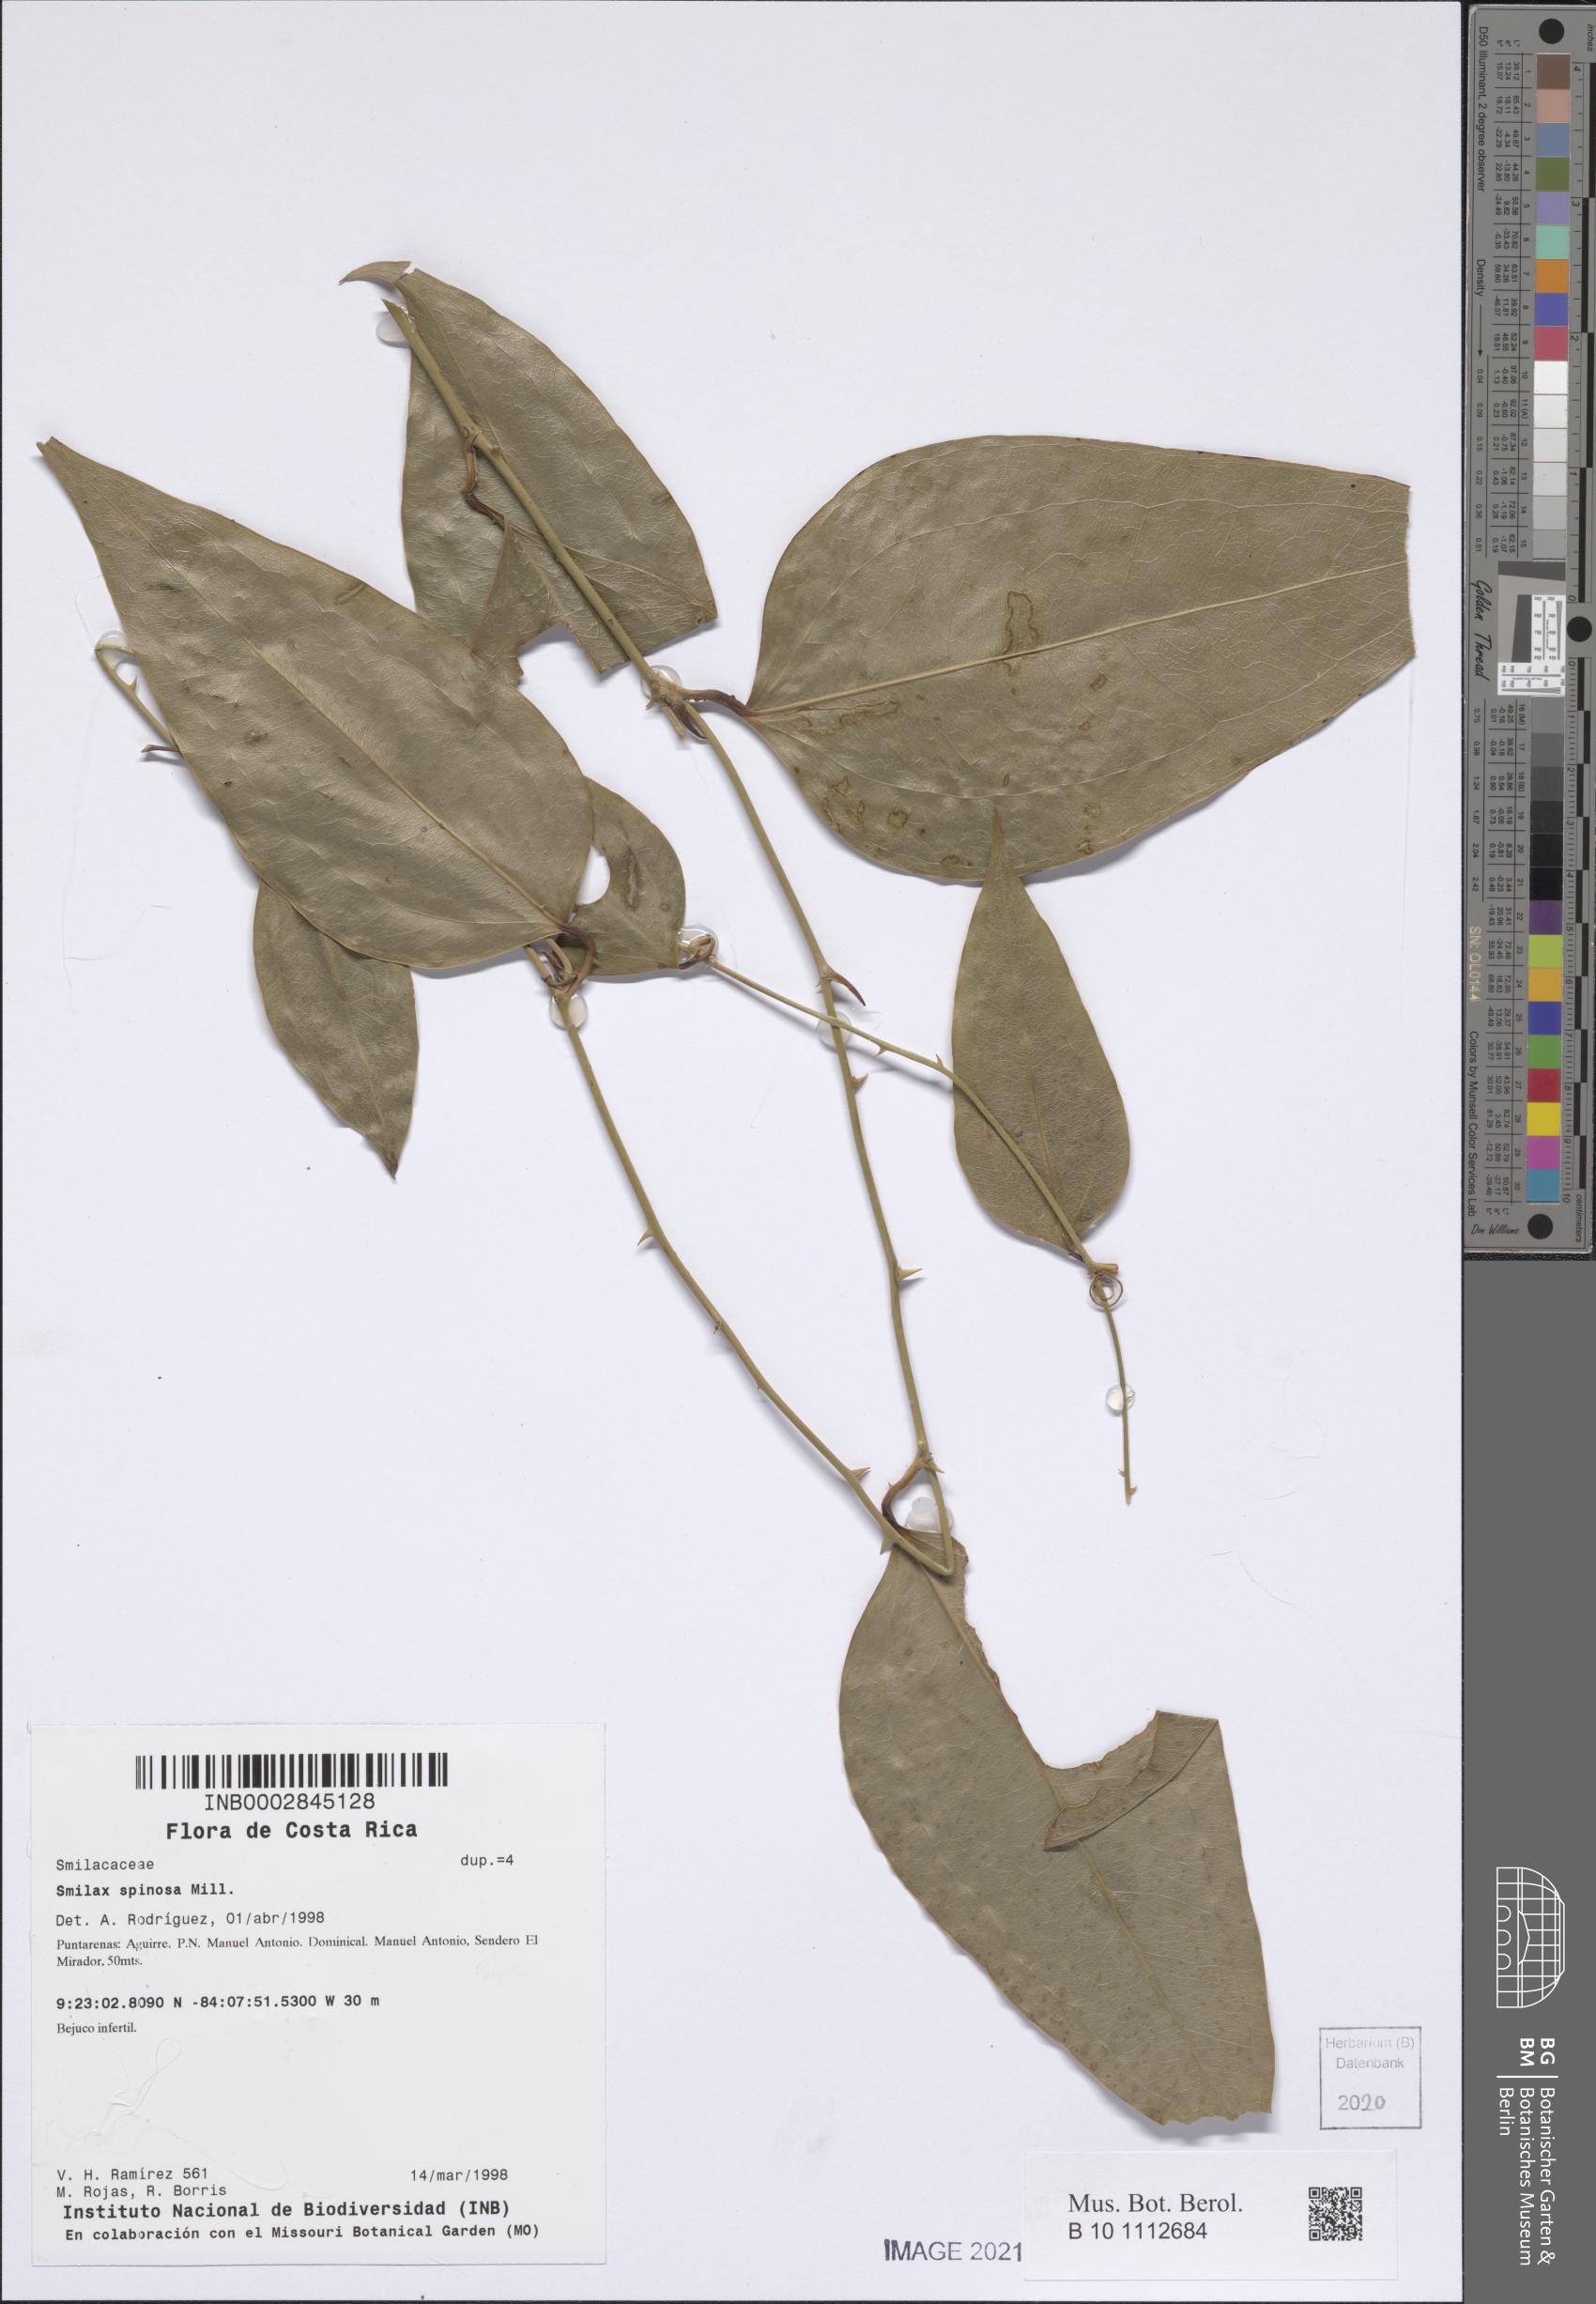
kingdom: Plantae
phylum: Tracheophyta
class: Liliopsida
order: Liliales
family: Smilacaceae
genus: Smilax
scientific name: Smilax spinosa
